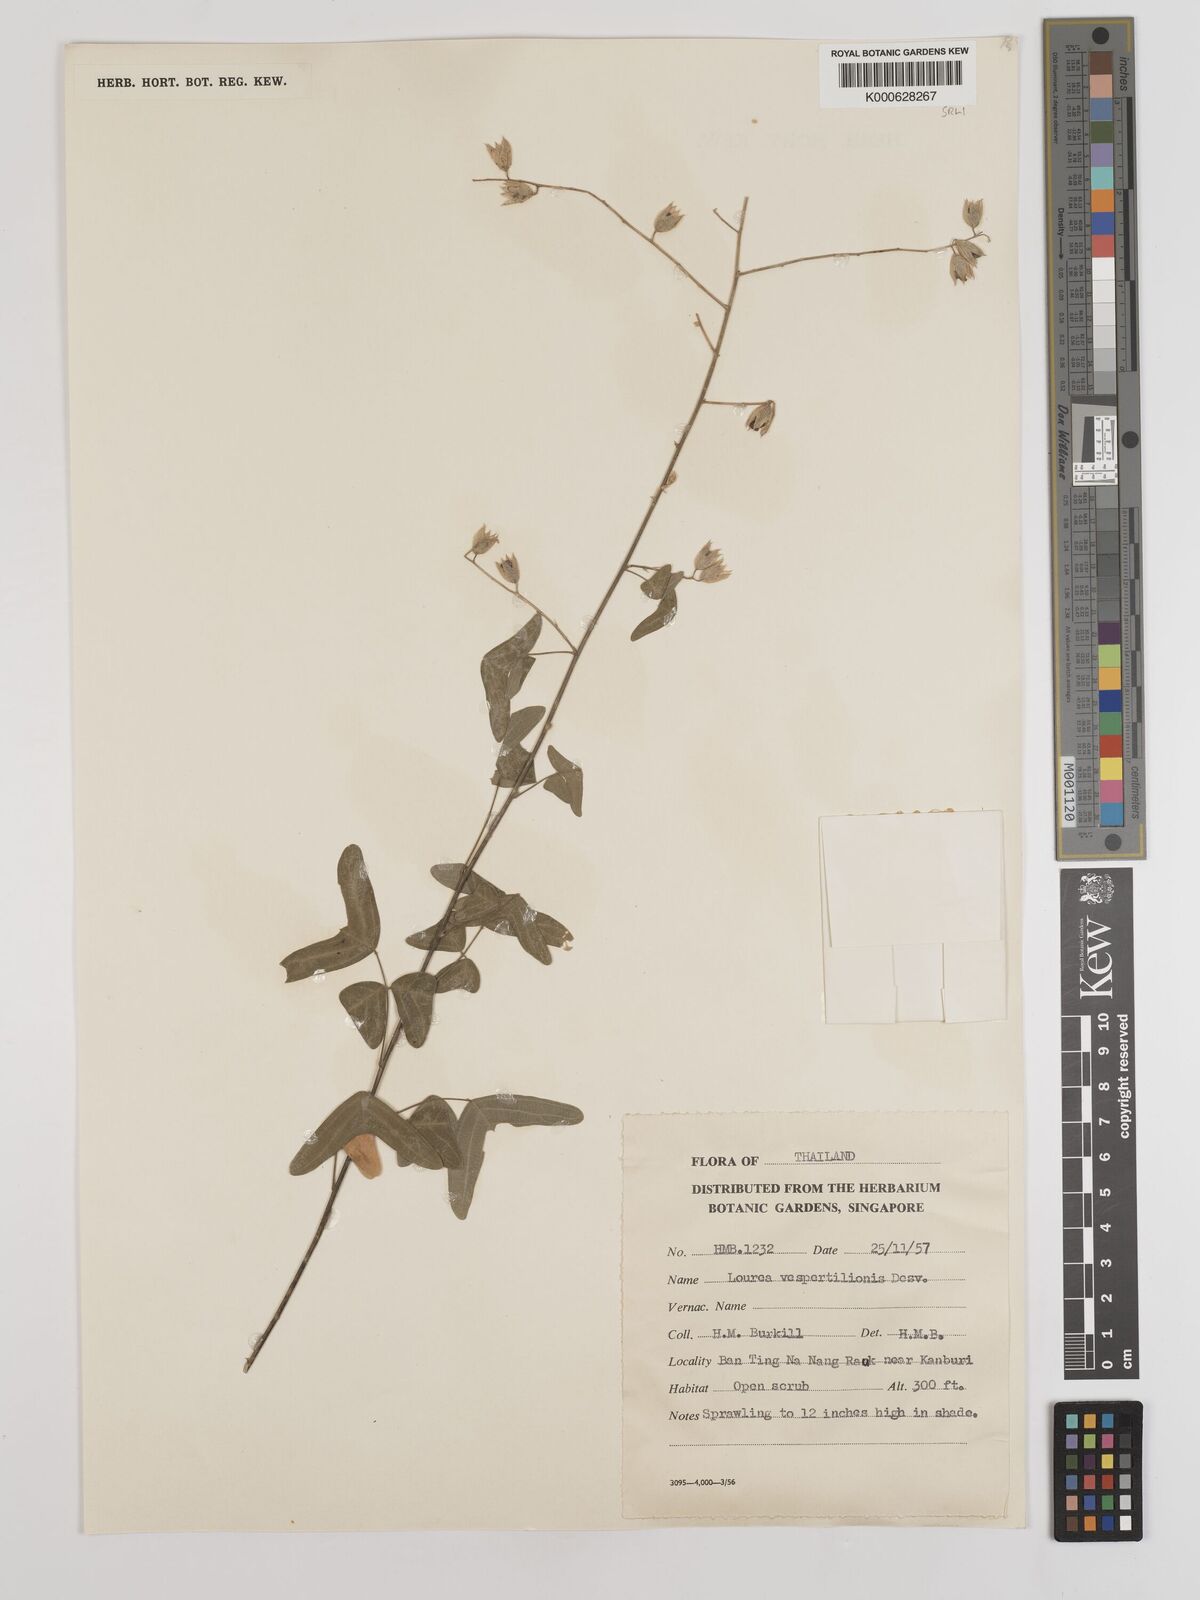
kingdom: Plantae
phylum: Tracheophyta
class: Magnoliopsida
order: Fabales
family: Fabaceae
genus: Christia
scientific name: Christia vespertilionis
